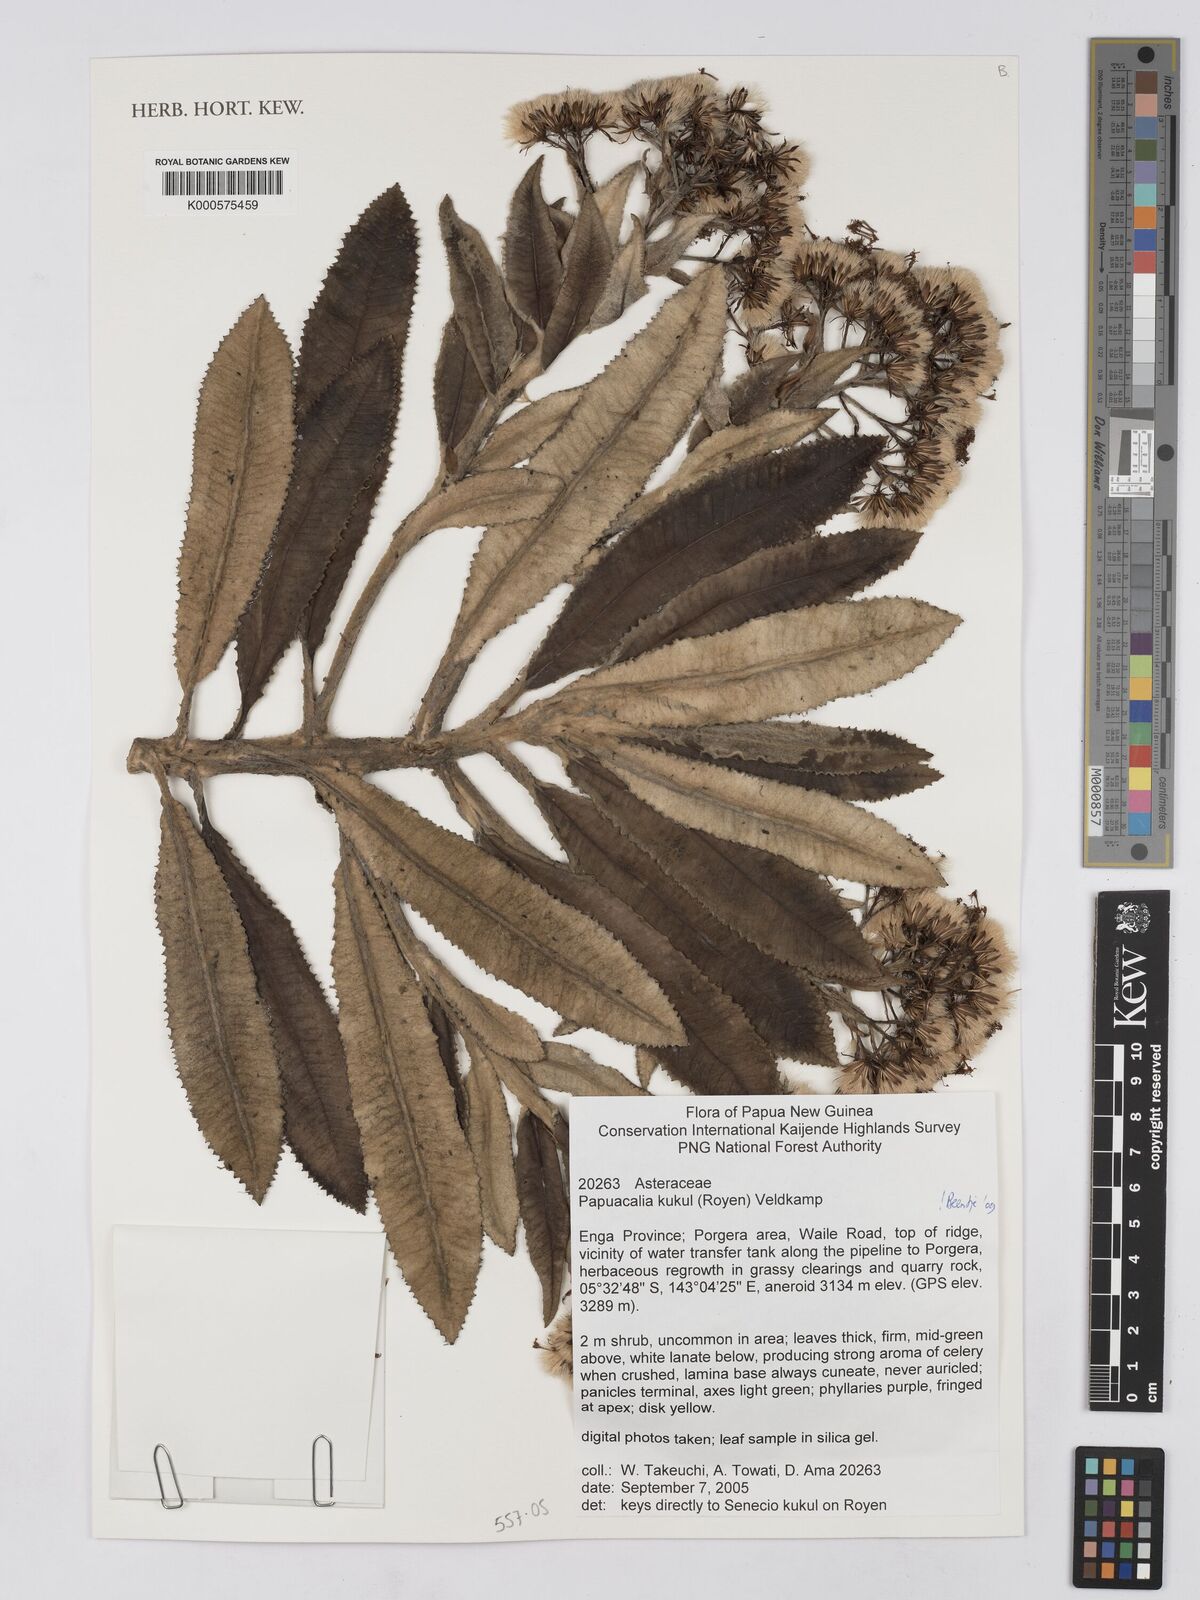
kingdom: Plantae
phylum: Tracheophyta
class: Magnoliopsida
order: Asterales
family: Asteraceae
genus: Papuacalia
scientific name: Papuacalia kukul
